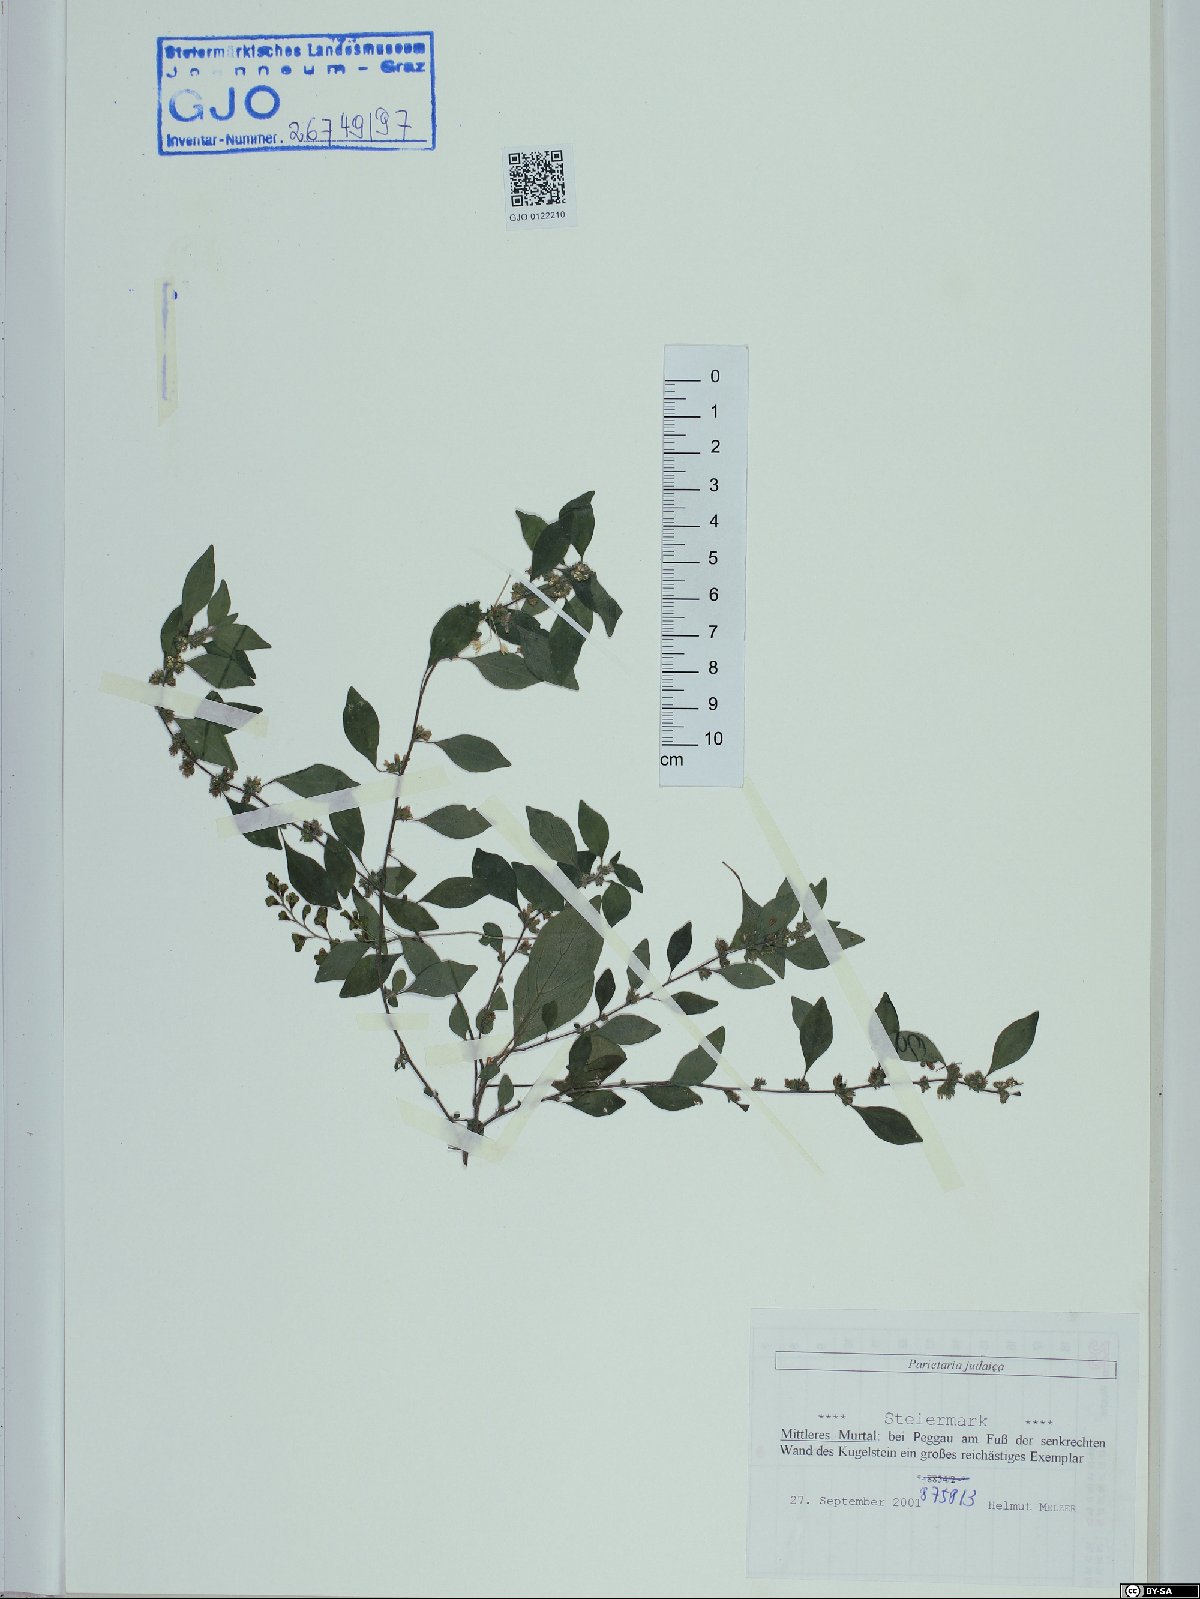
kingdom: Plantae
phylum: Tracheophyta
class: Magnoliopsida
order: Rosales
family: Urticaceae
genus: Parietaria
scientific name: Parietaria judaica
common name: Pellitory-of-the-wall
